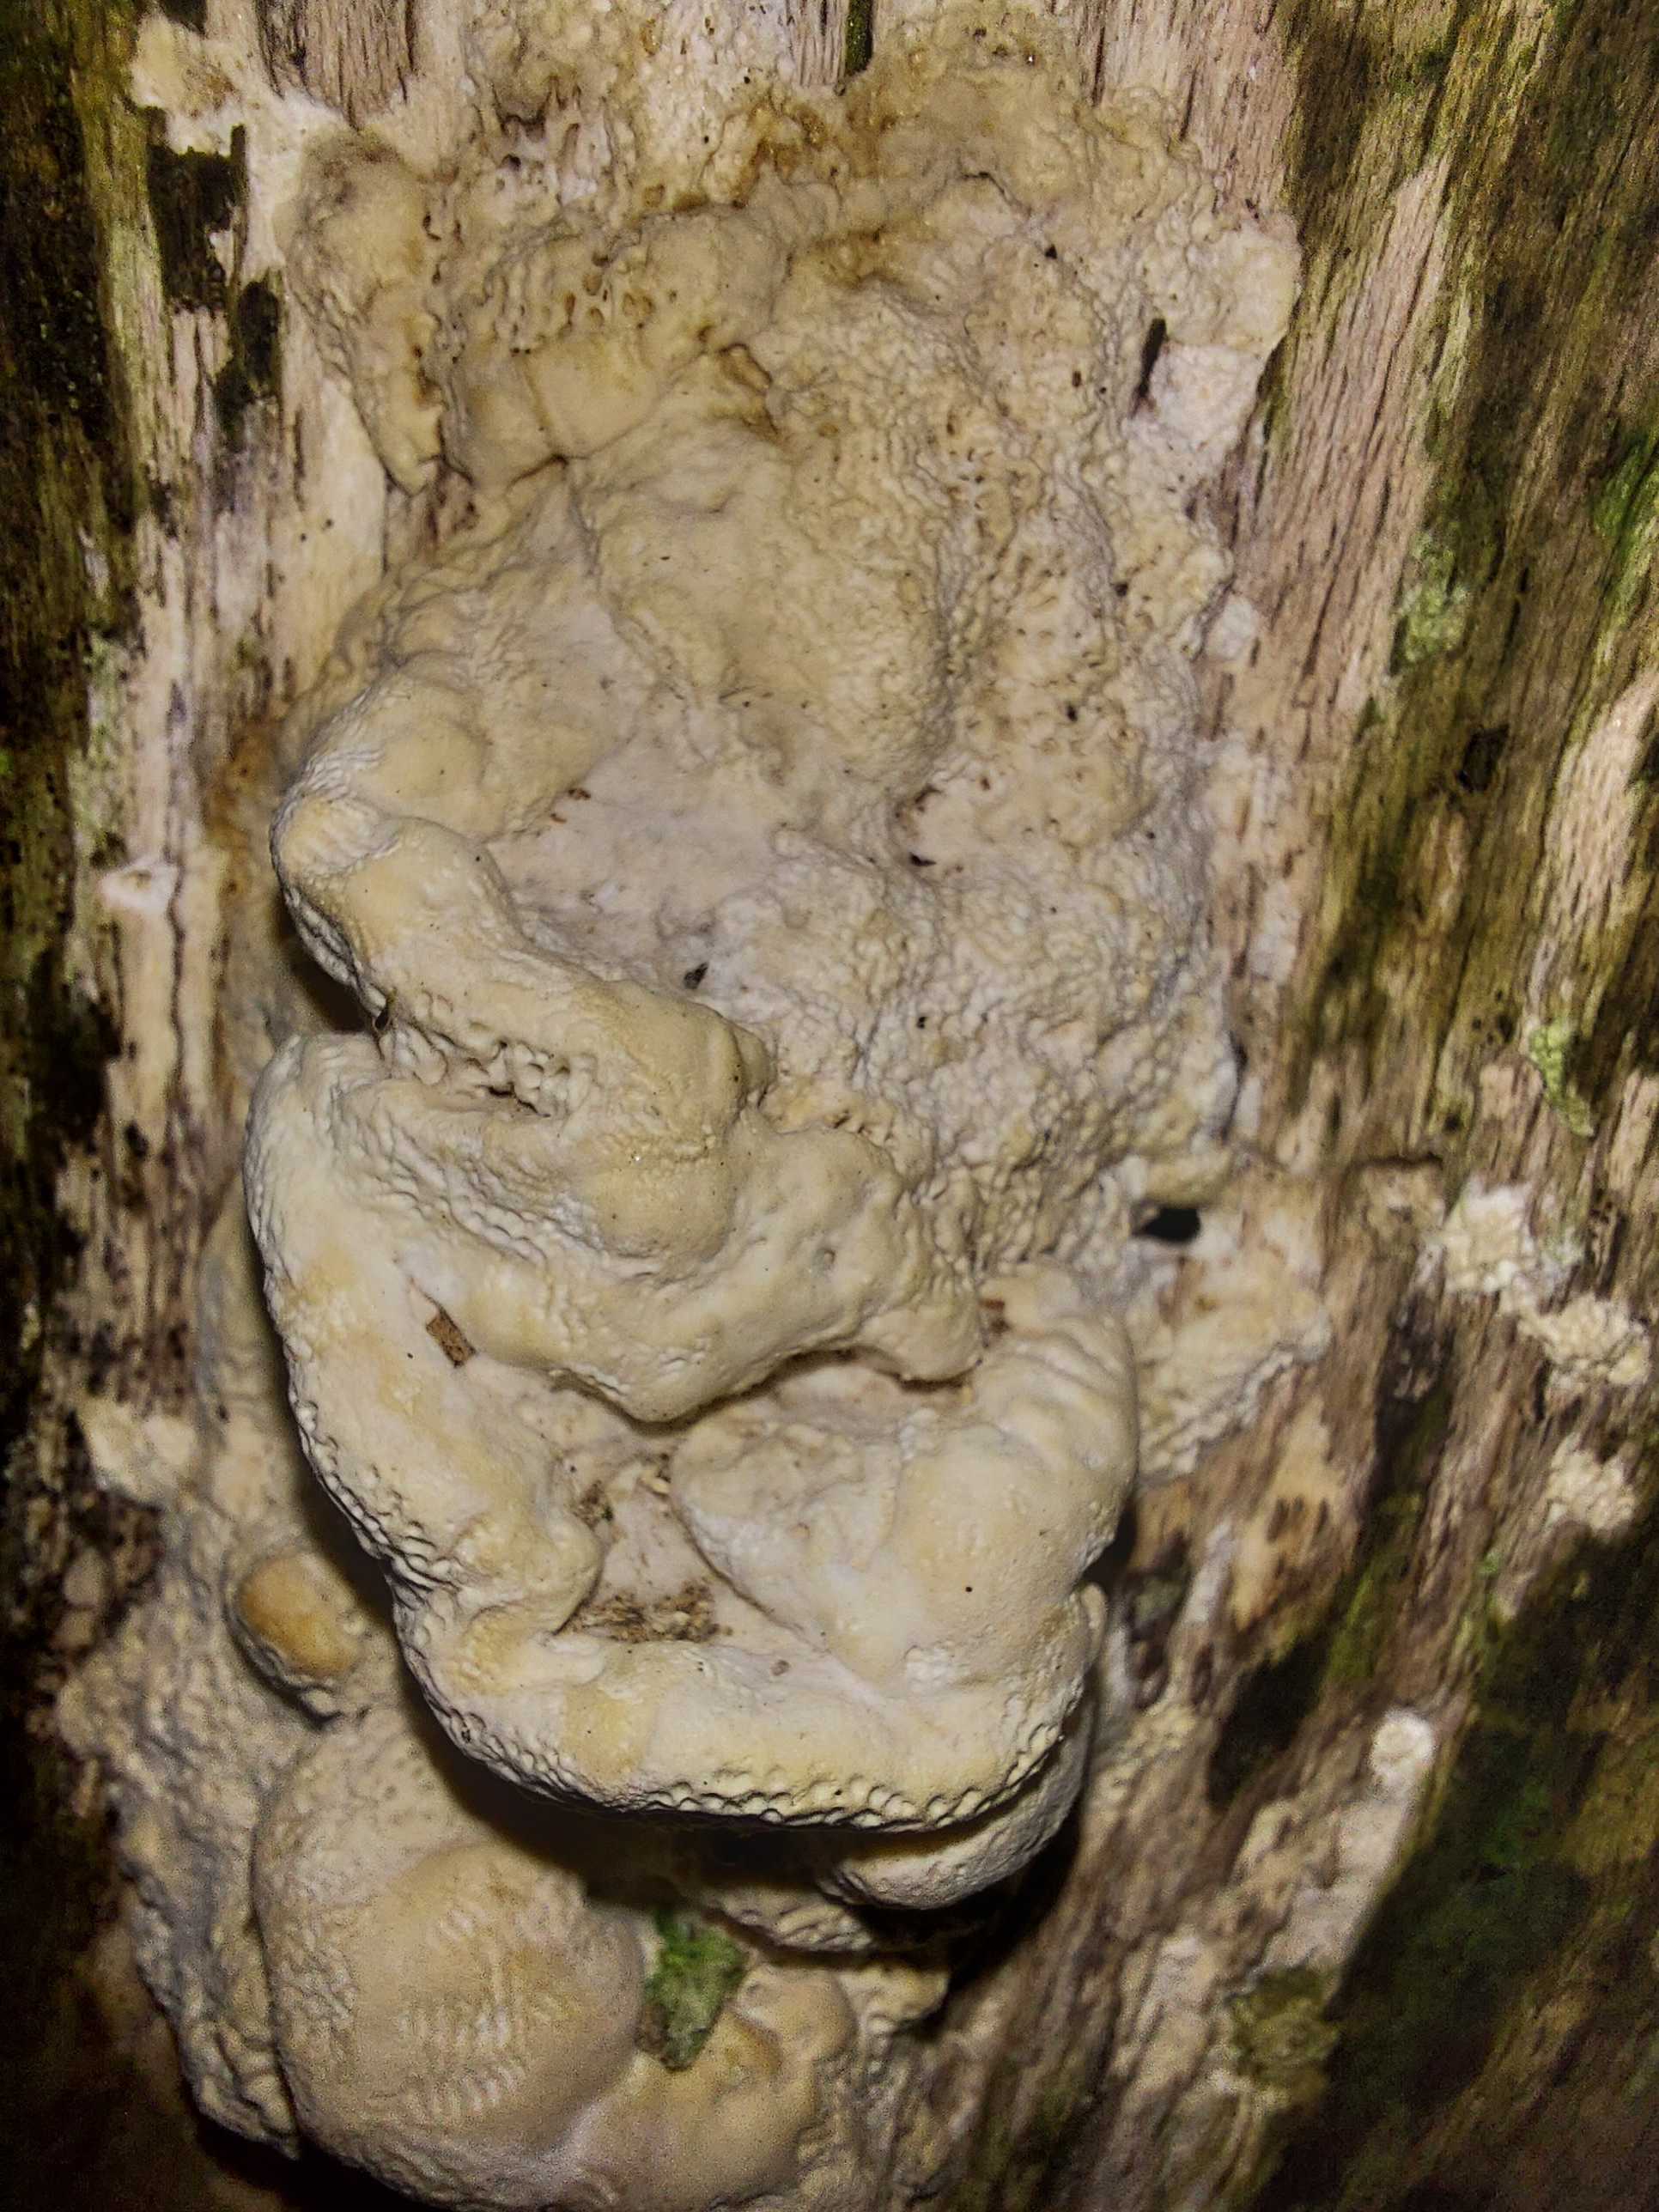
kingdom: Fungi
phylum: Basidiomycota
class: Agaricomycetes
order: Polyporales
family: Polyporaceae
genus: Trametes
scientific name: Trametes gibbosa
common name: puklet læderporesvamp
